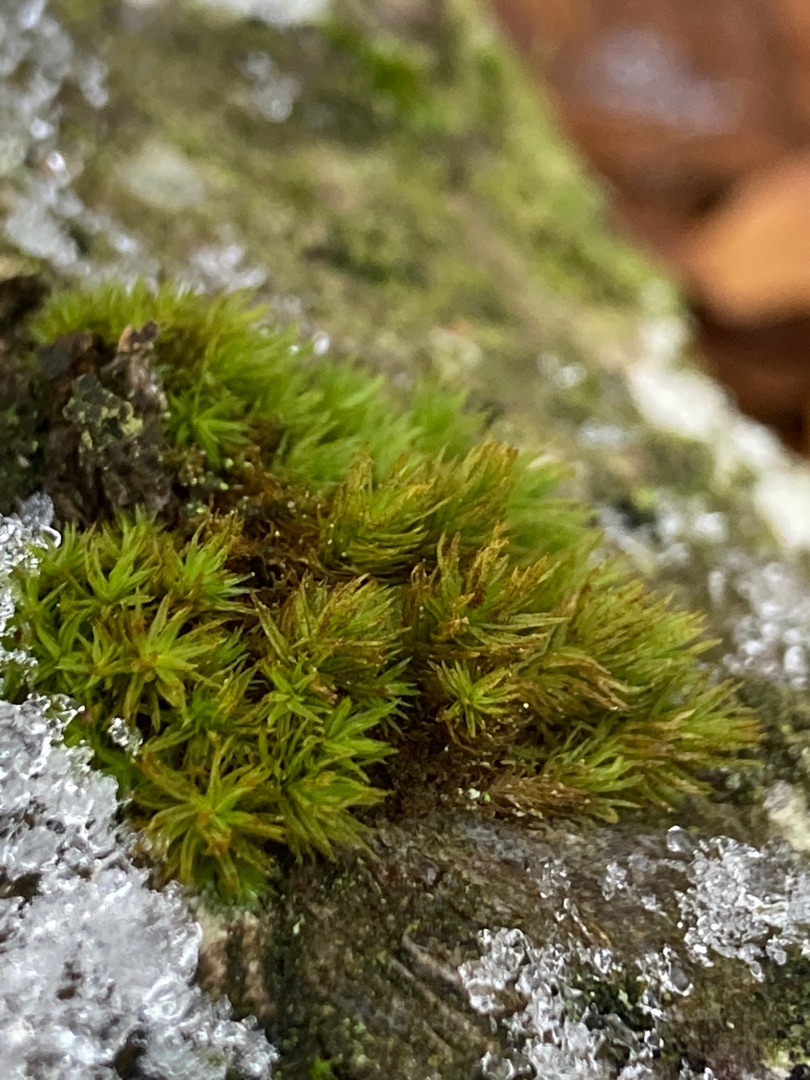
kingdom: Plantae
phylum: Bryophyta
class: Bryopsida
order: Orthotrichales
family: Orthotrichaceae
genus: Pulvigera
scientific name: Pulvigera lyellii
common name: Stor furehætte
